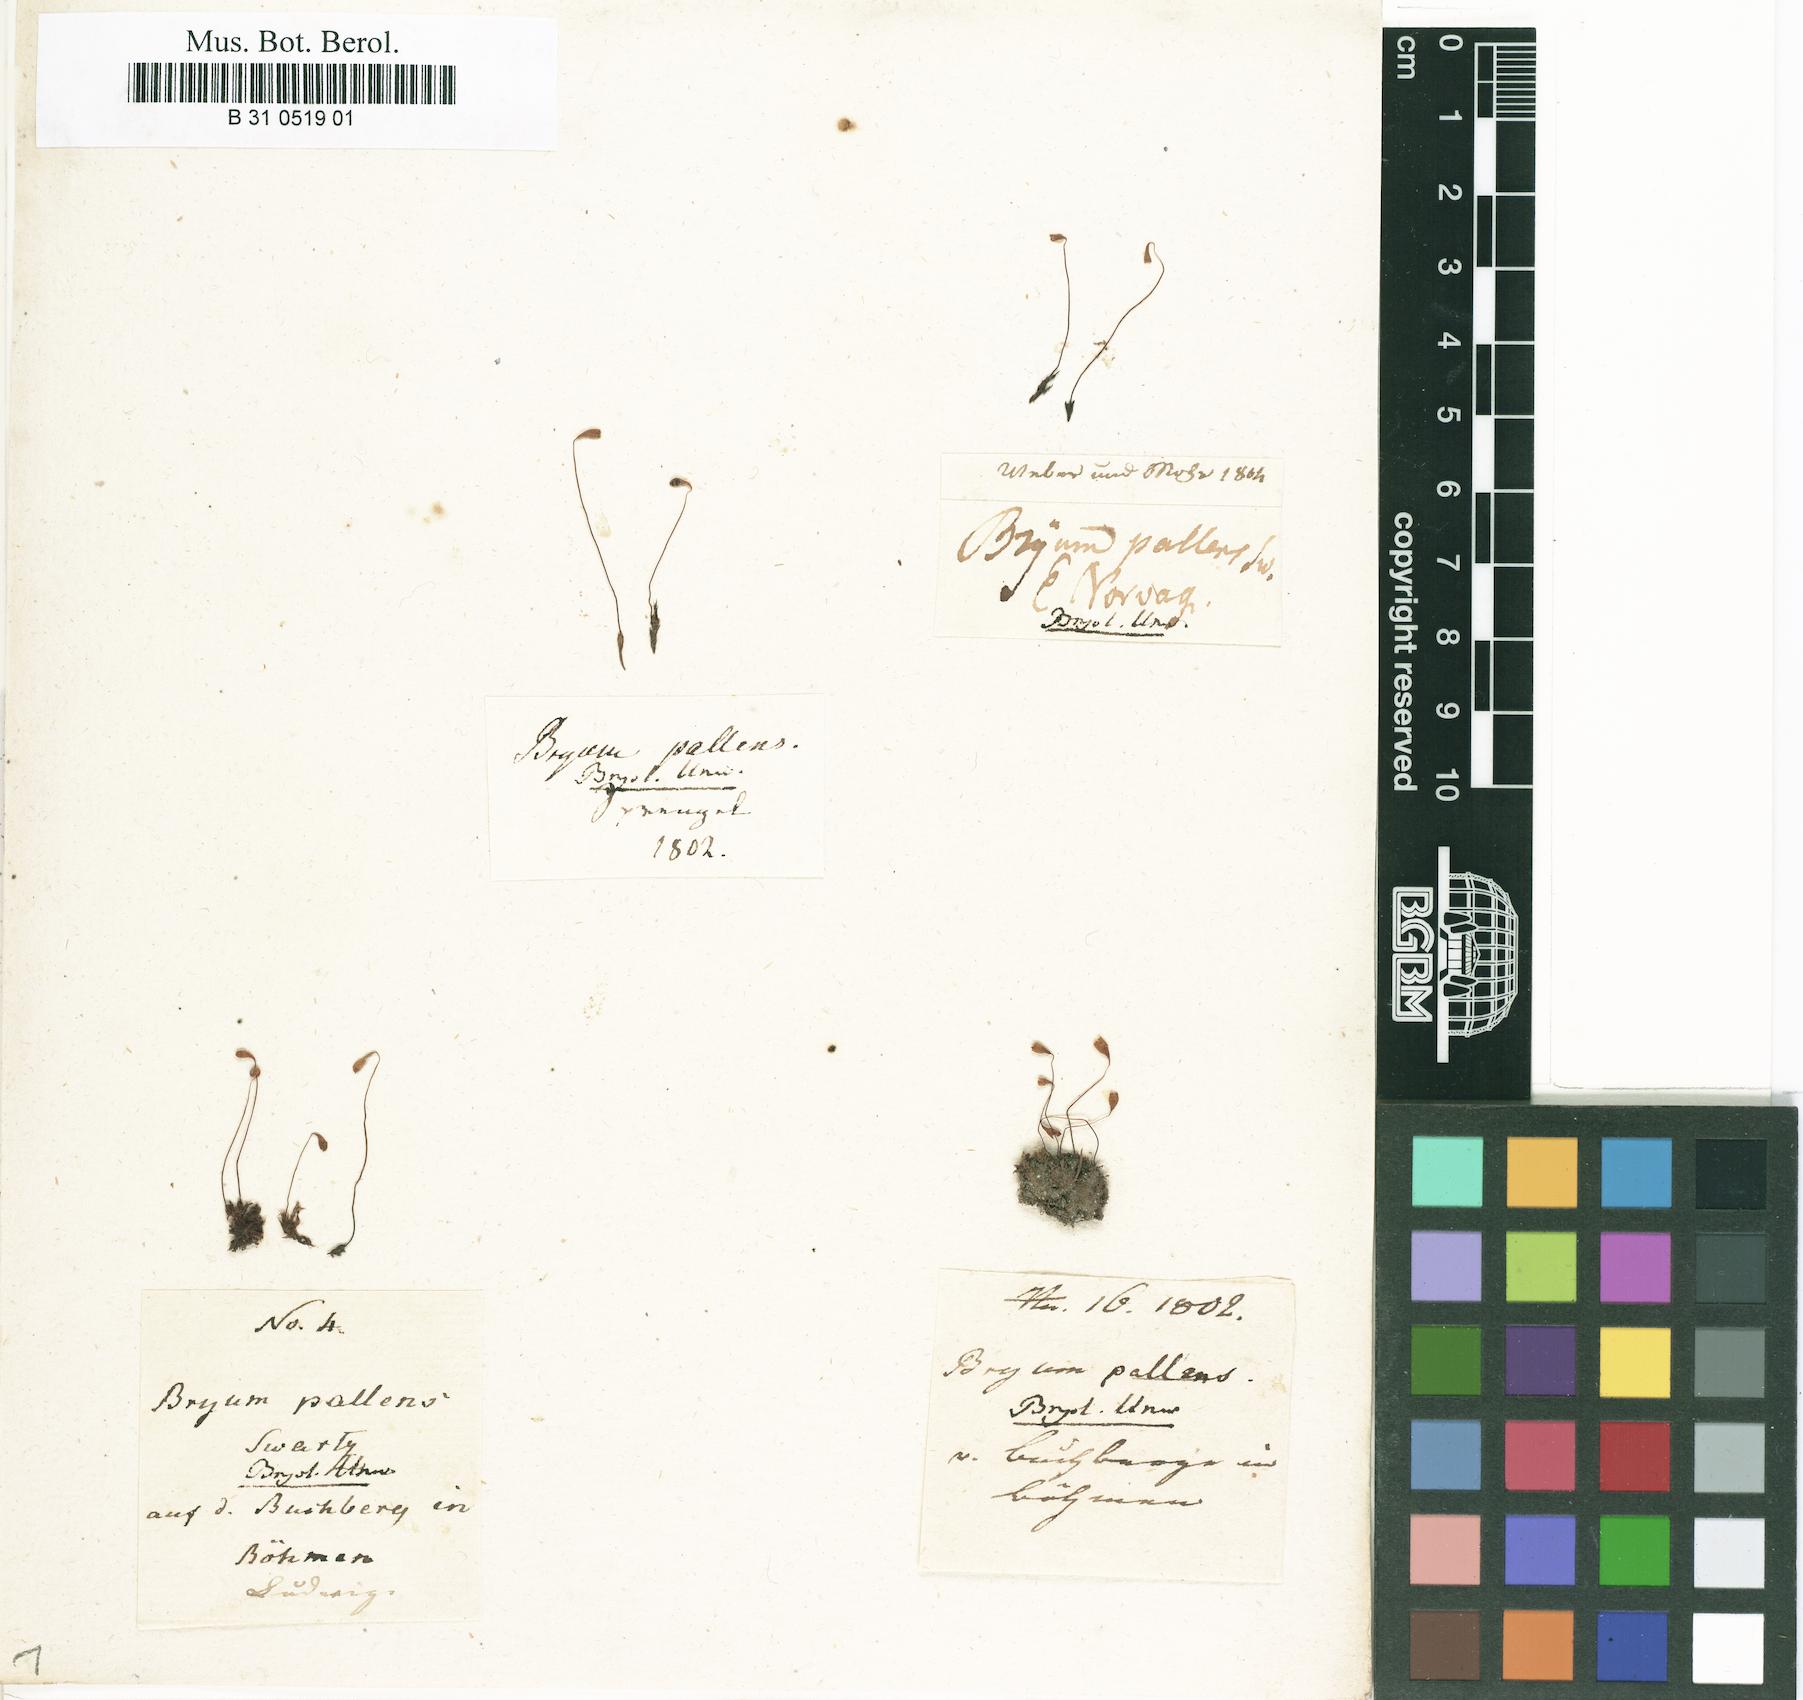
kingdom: Plantae
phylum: Bryophyta
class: Bryopsida
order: Bryales
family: Bryaceae
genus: Ptychostomum
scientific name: Ptychostomum pallens
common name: Pale thread-moss
